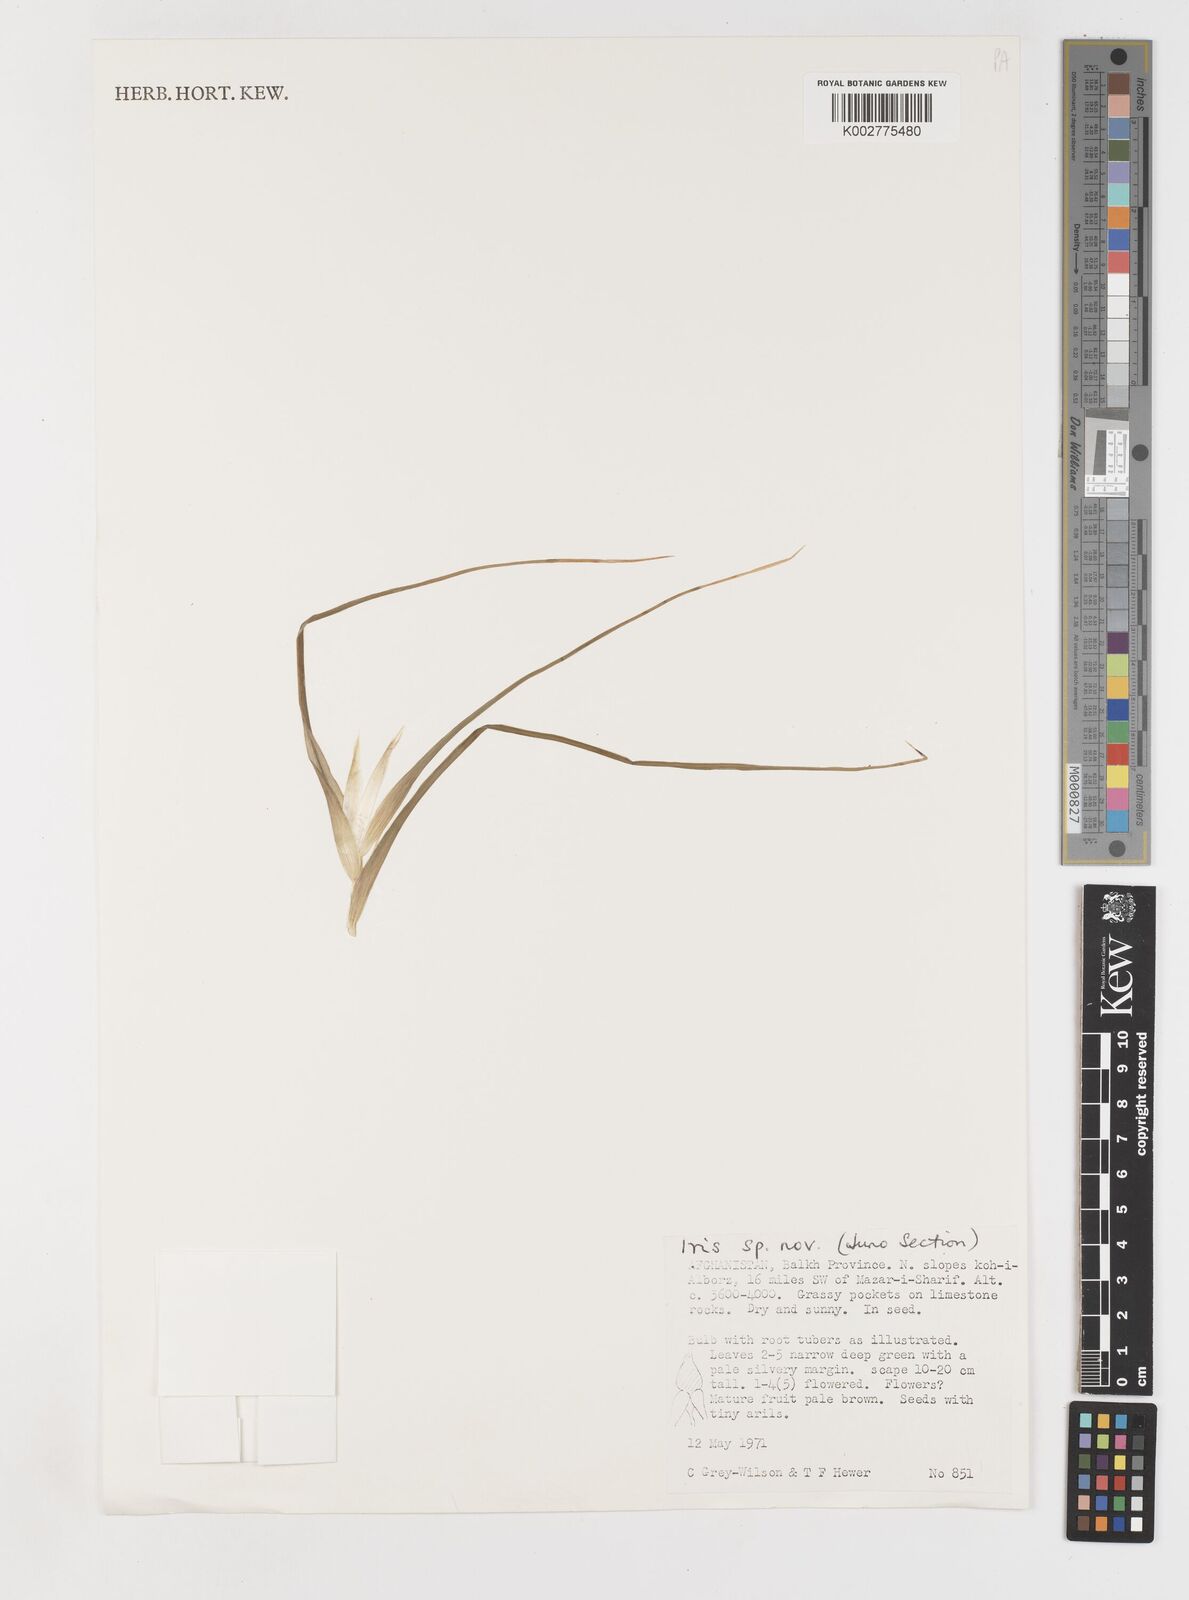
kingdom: Plantae
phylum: Tracheophyta
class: Liliopsida
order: Asparagales
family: Iridaceae
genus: Iris
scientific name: Iris drepanophylla
